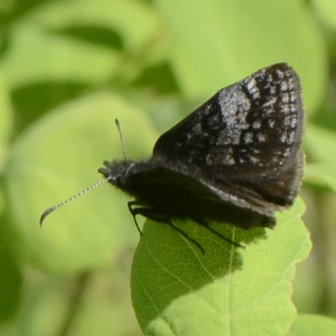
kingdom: Animalia
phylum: Arthropoda
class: Insecta
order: Lepidoptera
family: Hesperiidae
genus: Gesta
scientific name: Gesta
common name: Columbine Duskywing
